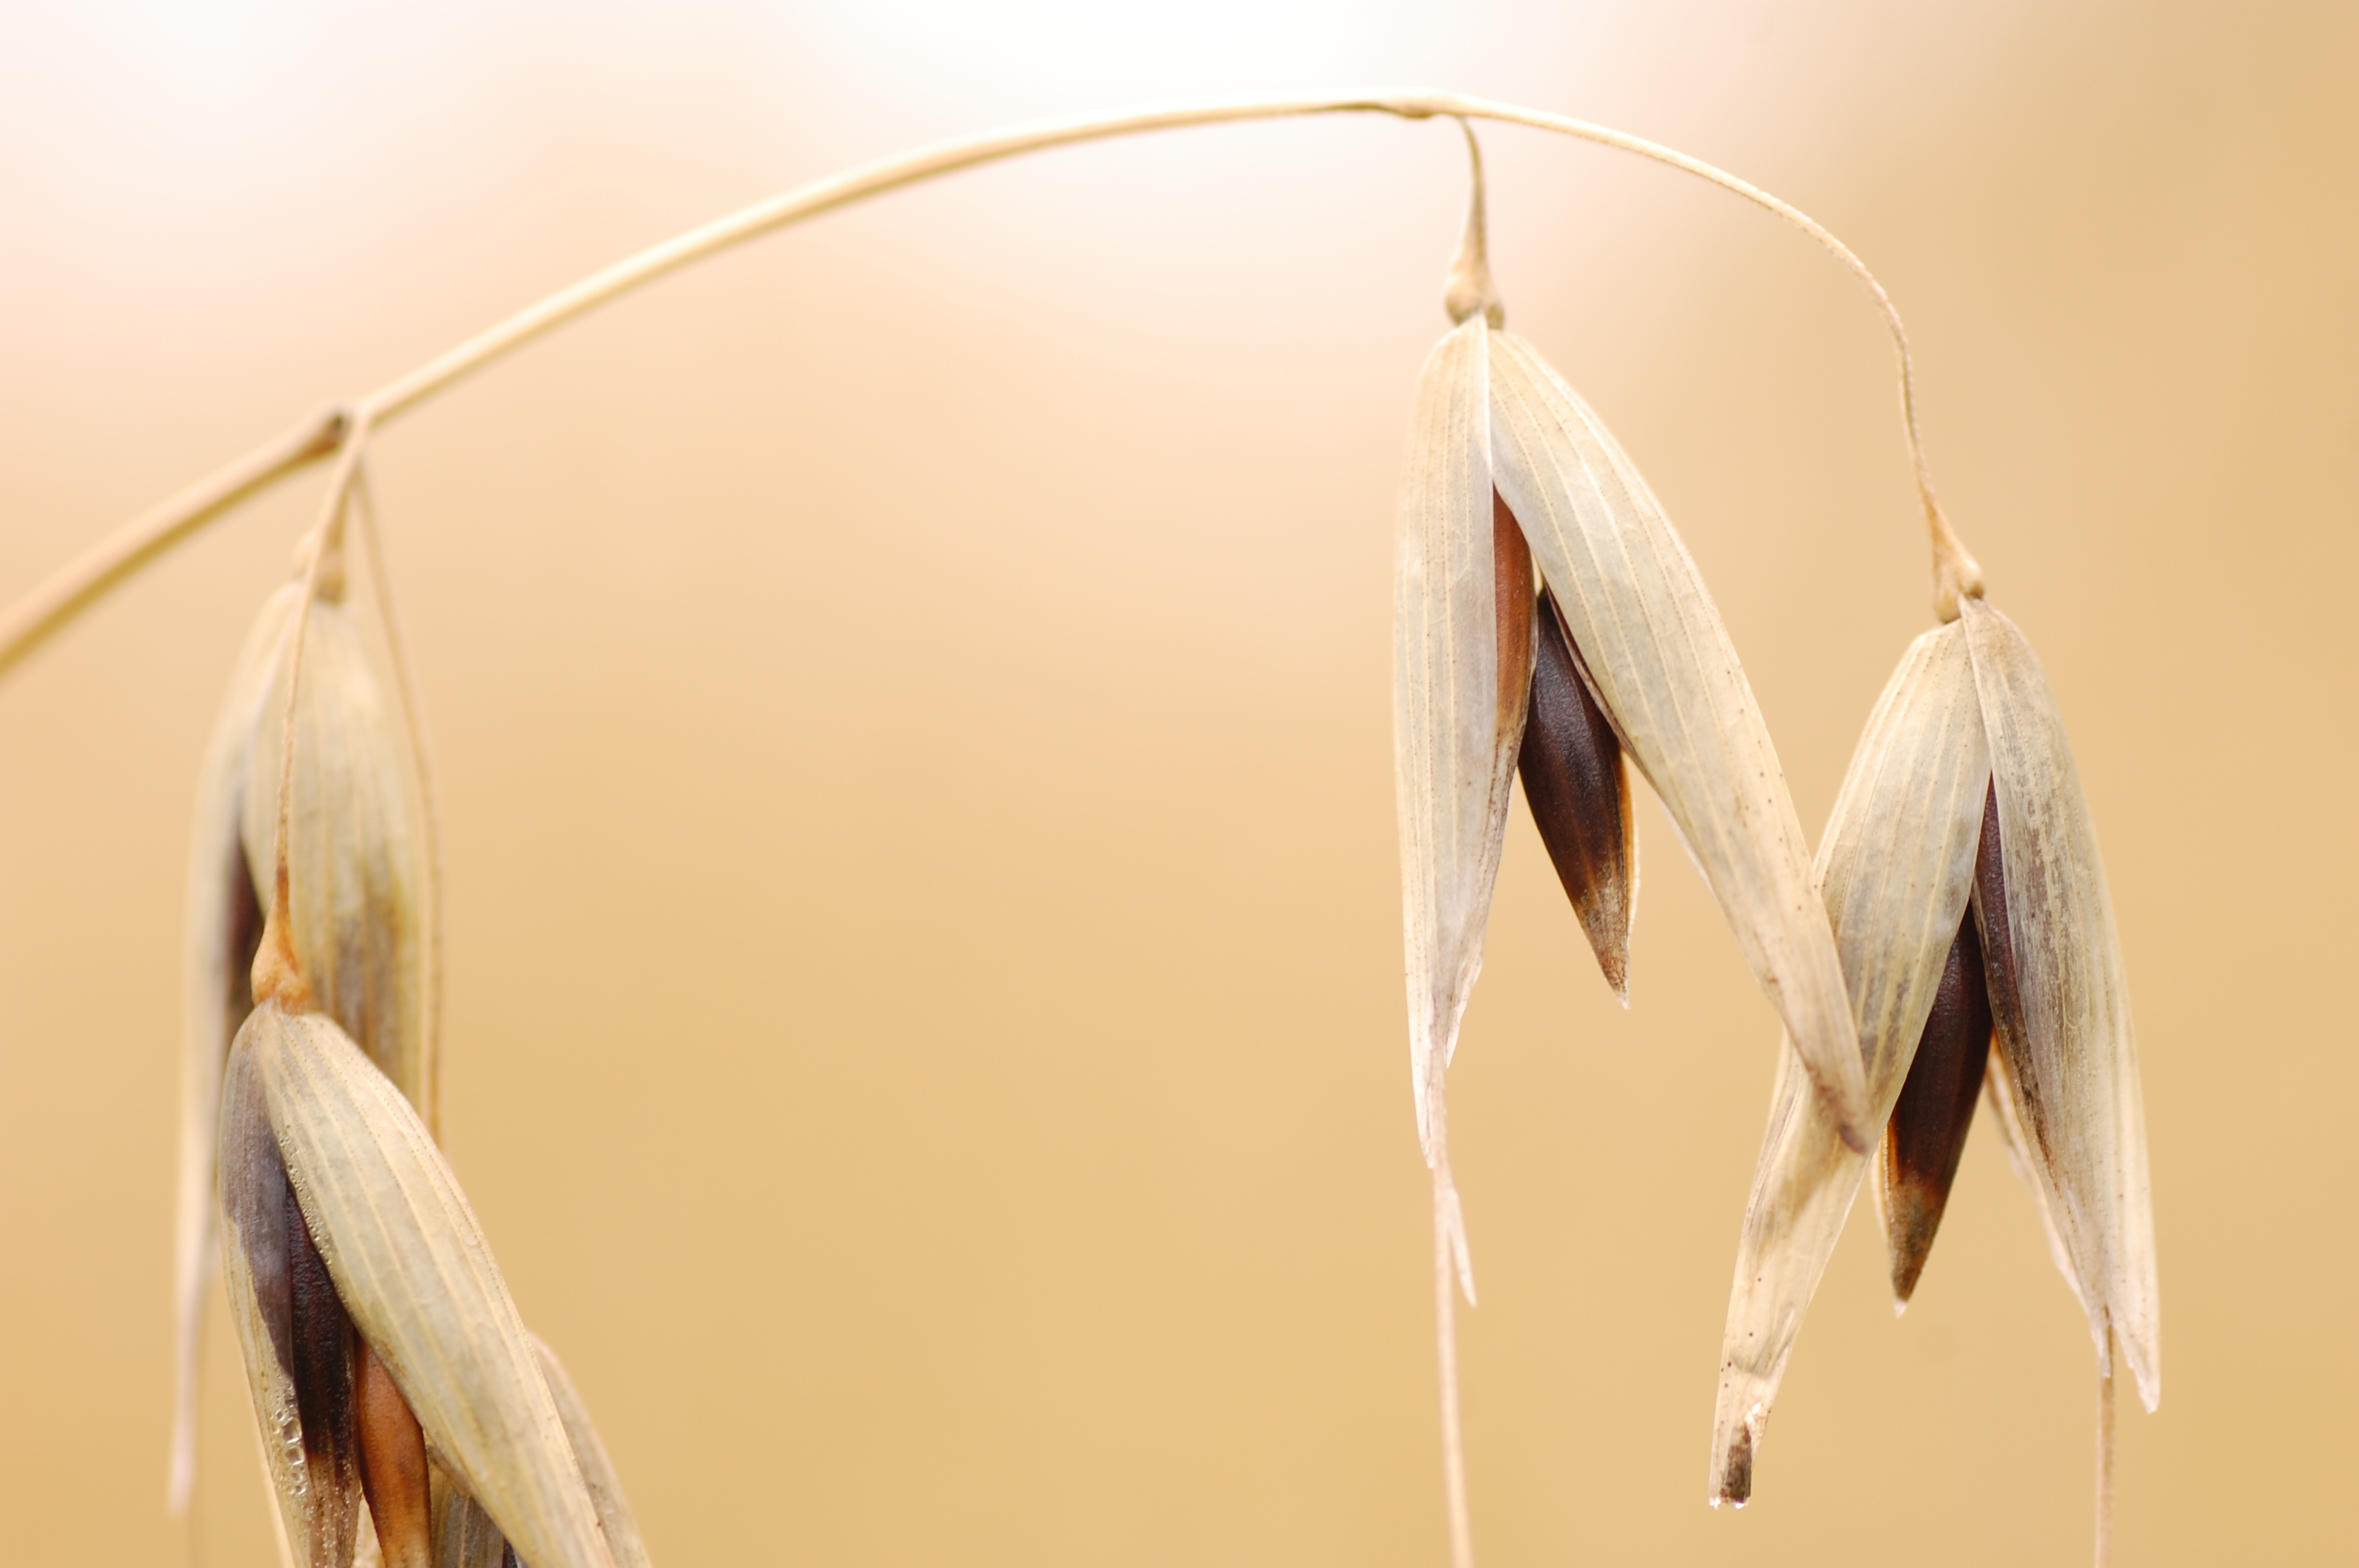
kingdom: Plantae
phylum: Tracheophyta
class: Liliopsida
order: Poales
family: Poaceae
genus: Avena
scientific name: Avena sativa
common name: Oat
